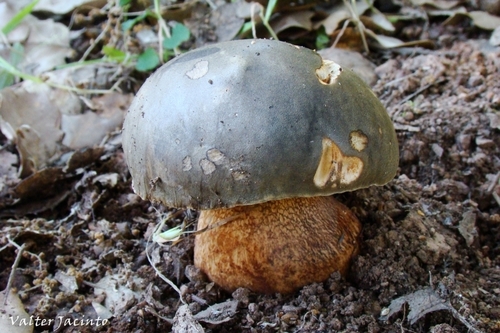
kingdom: Fungi
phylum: Basidiomycota
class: Agaricomycetes
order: Boletales
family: Boletaceae
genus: Boletus
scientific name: Boletus aereus
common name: Bronze bolete
